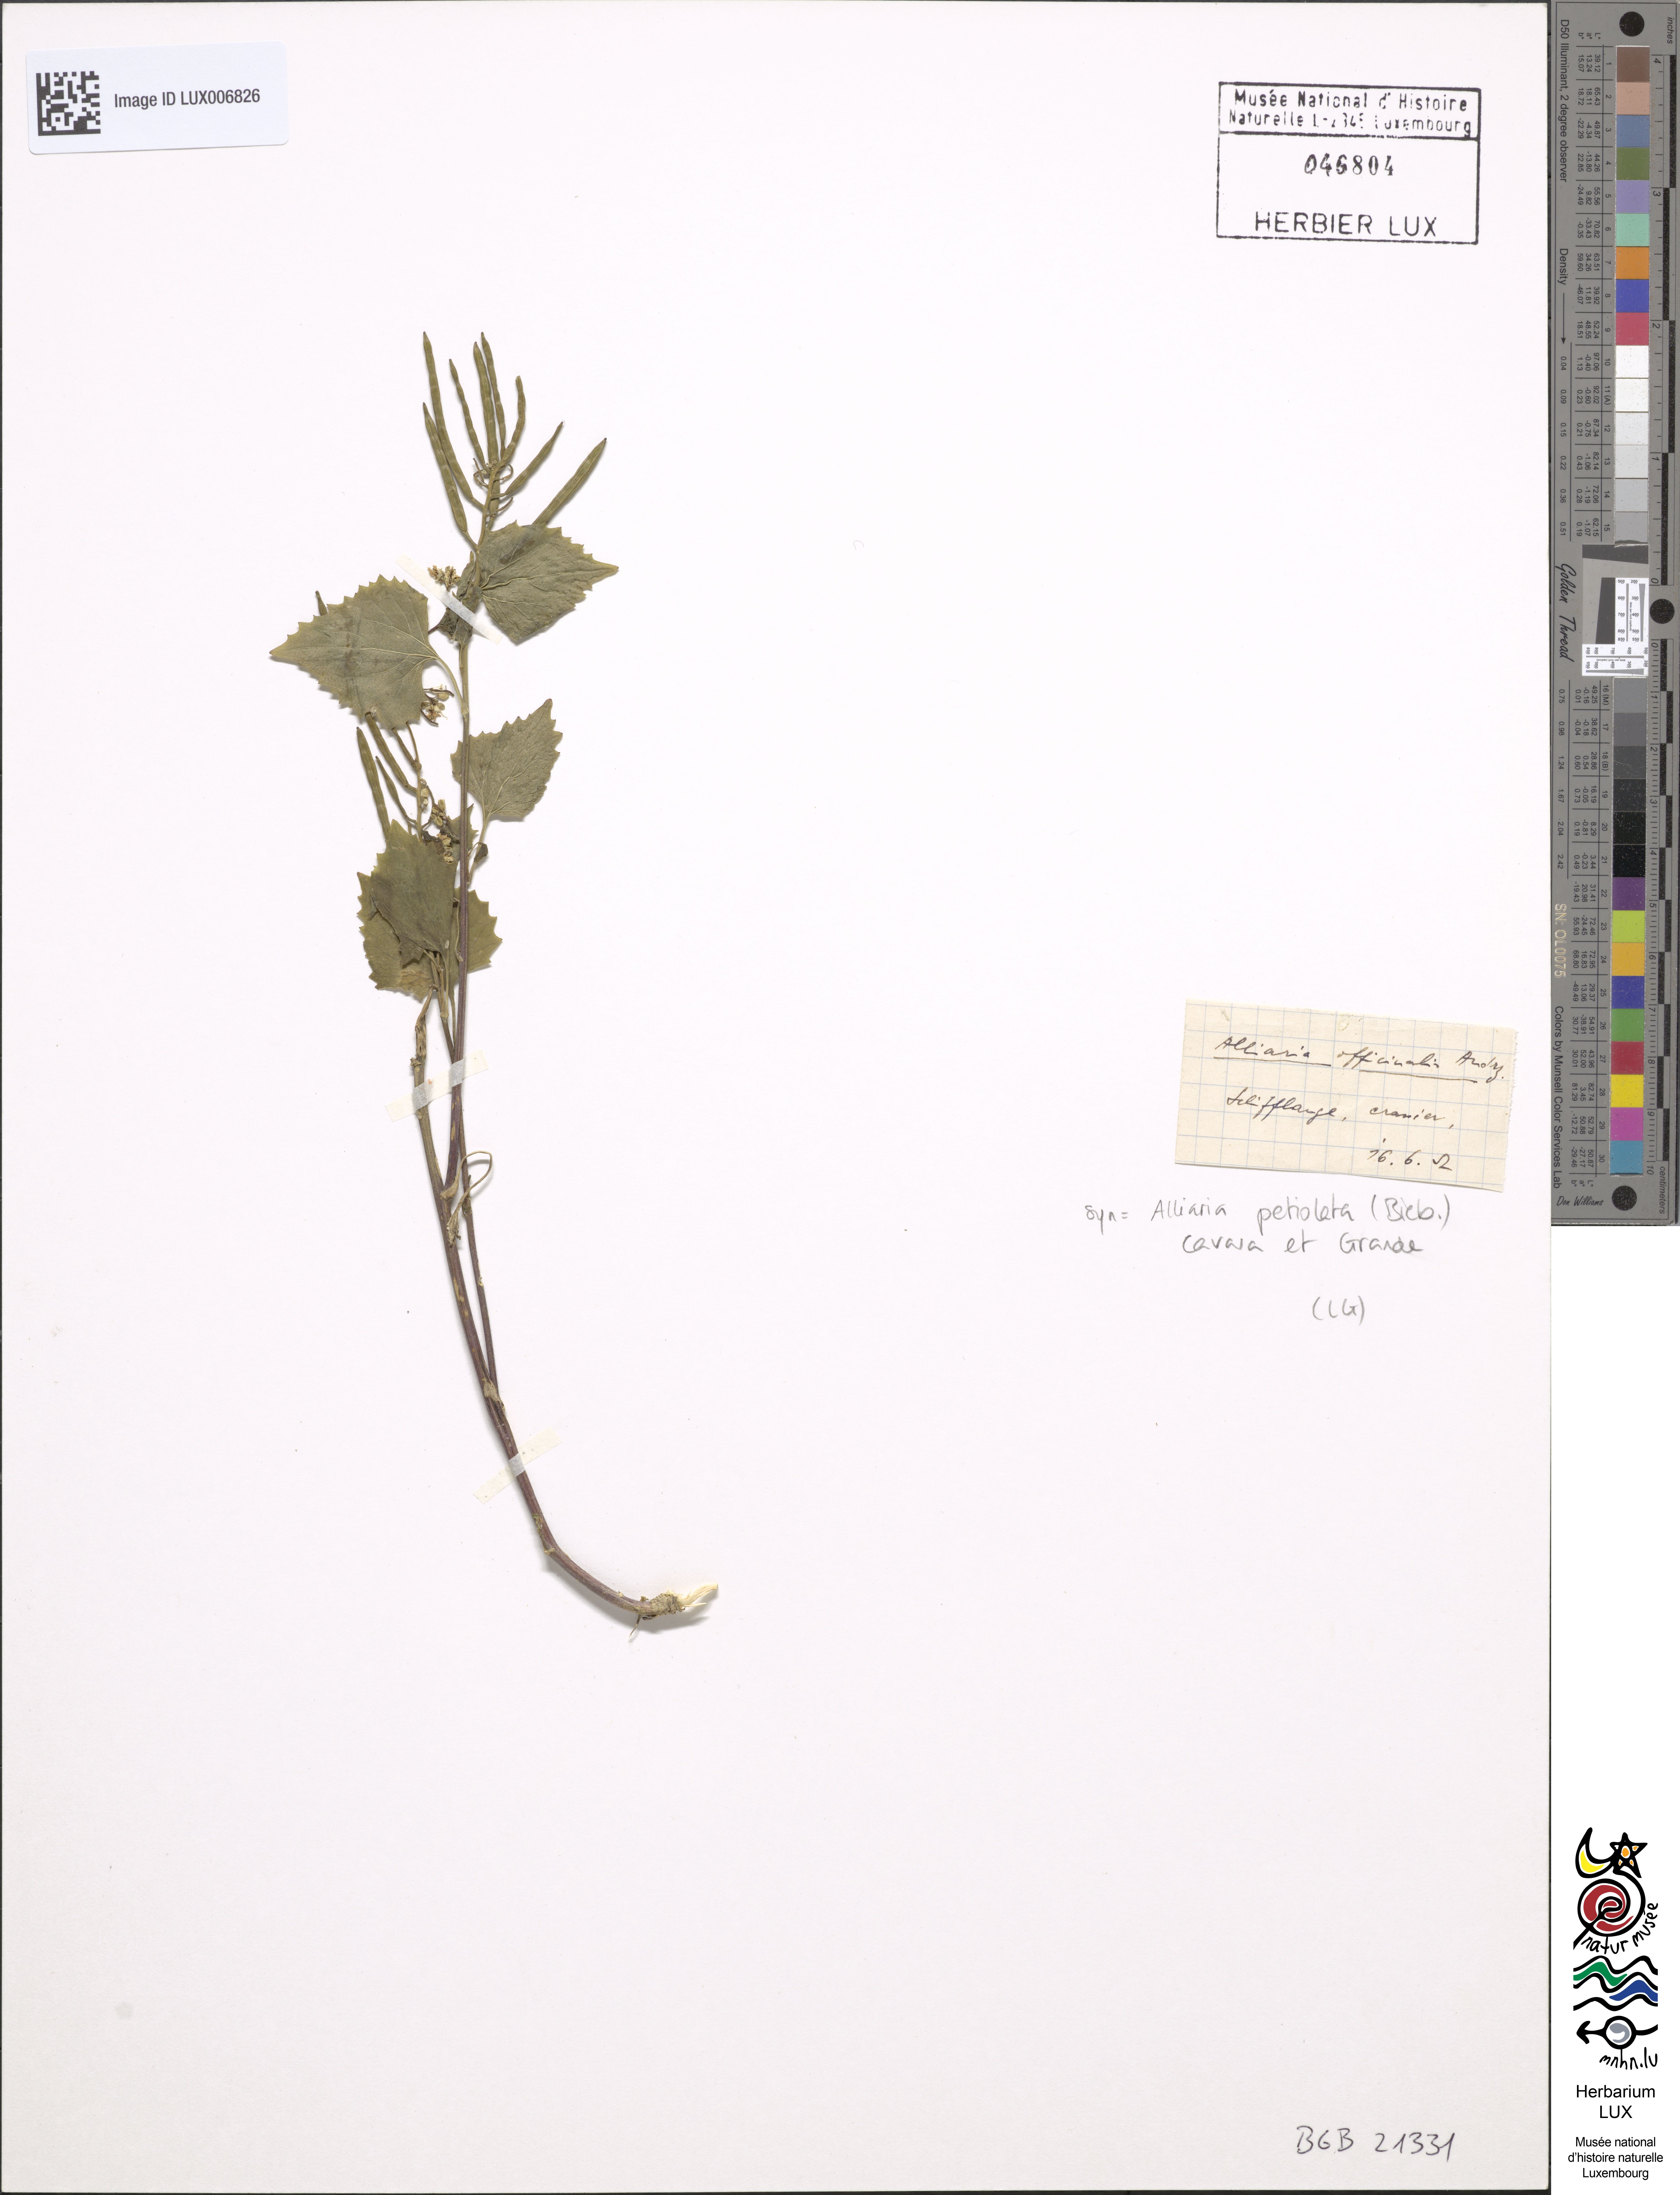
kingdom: Plantae
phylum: Tracheophyta
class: Magnoliopsida
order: Brassicales
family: Brassicaceae
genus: Alliaria
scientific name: Alliaria petiolata
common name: Garlic mustard
